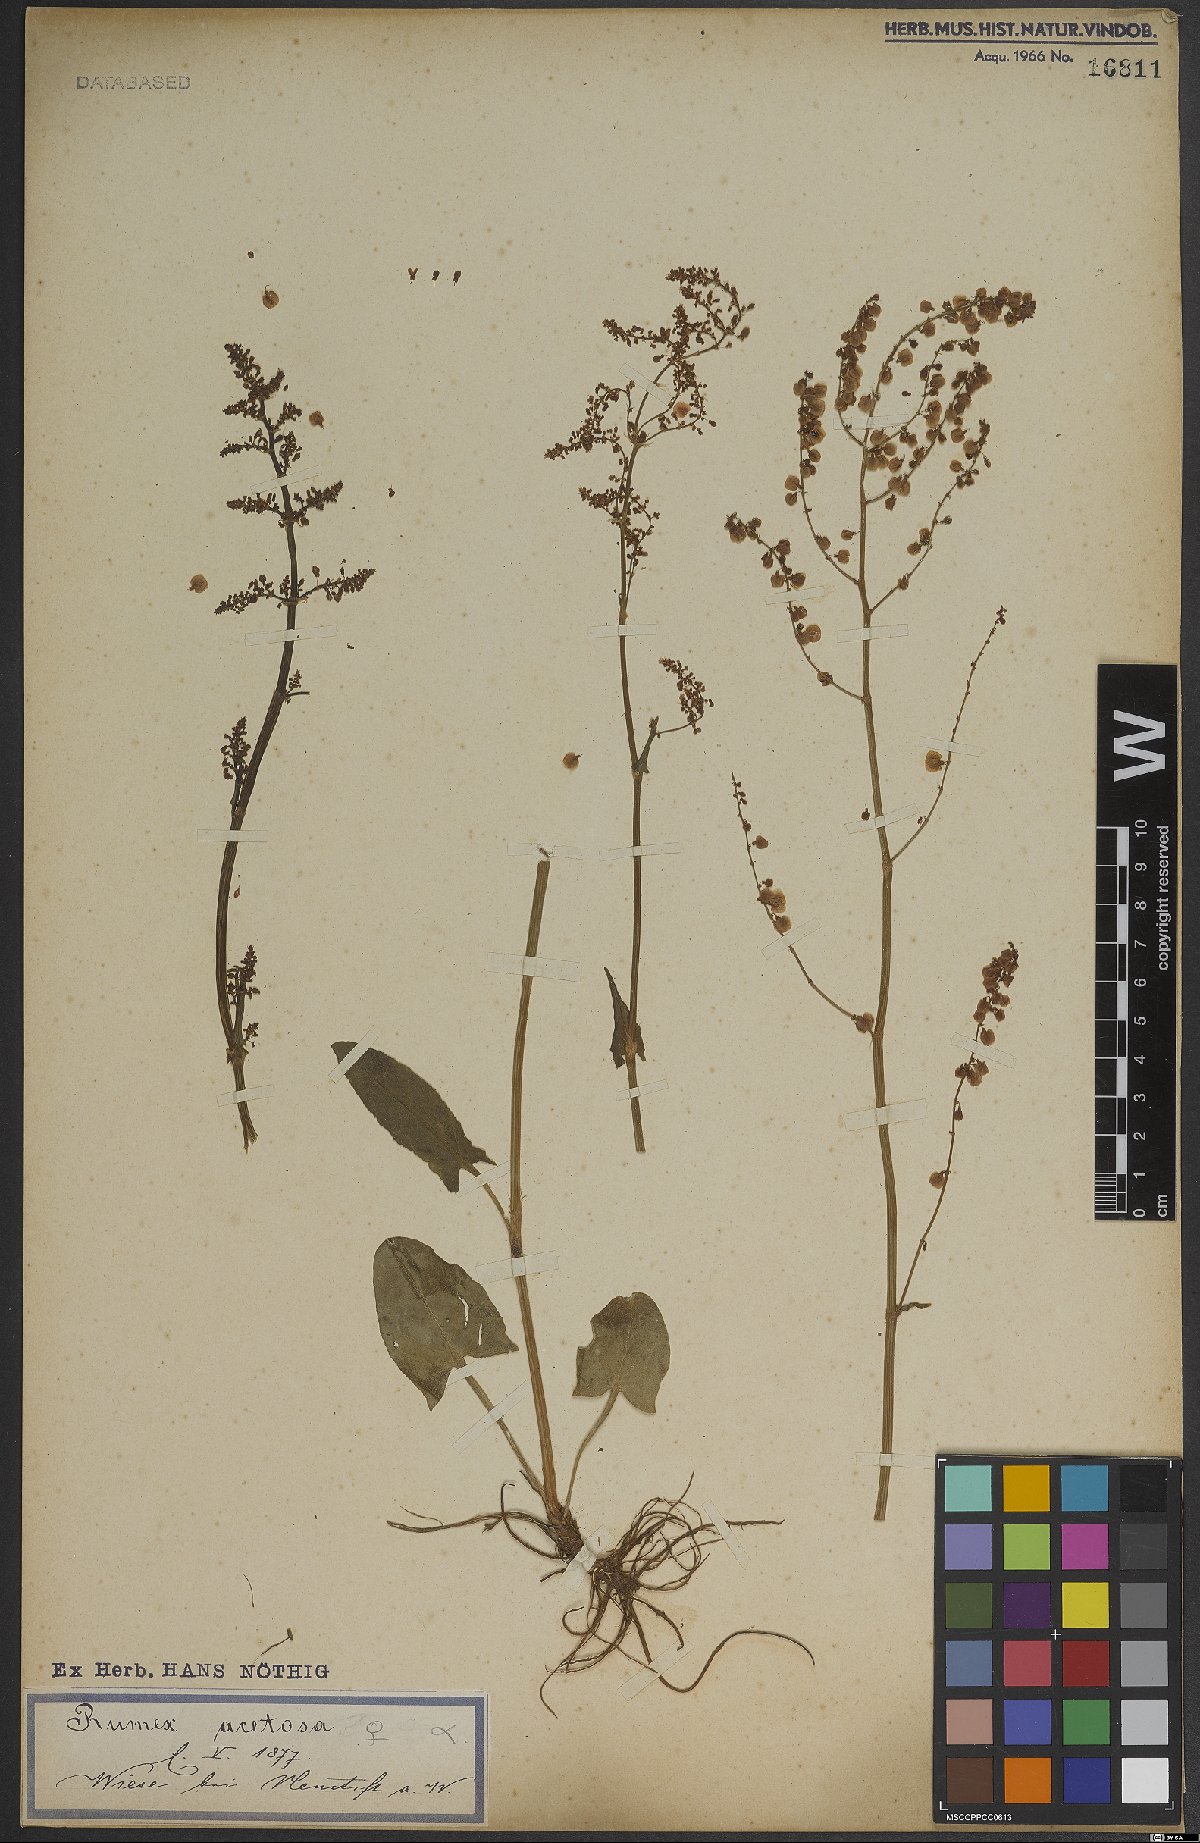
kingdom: Plantae
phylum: Tracheophyta
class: Magnoliopsida
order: Caryophyllales
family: Polygonaceae
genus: Rumex
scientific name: Rumex acetosa
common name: Garden sorrel
